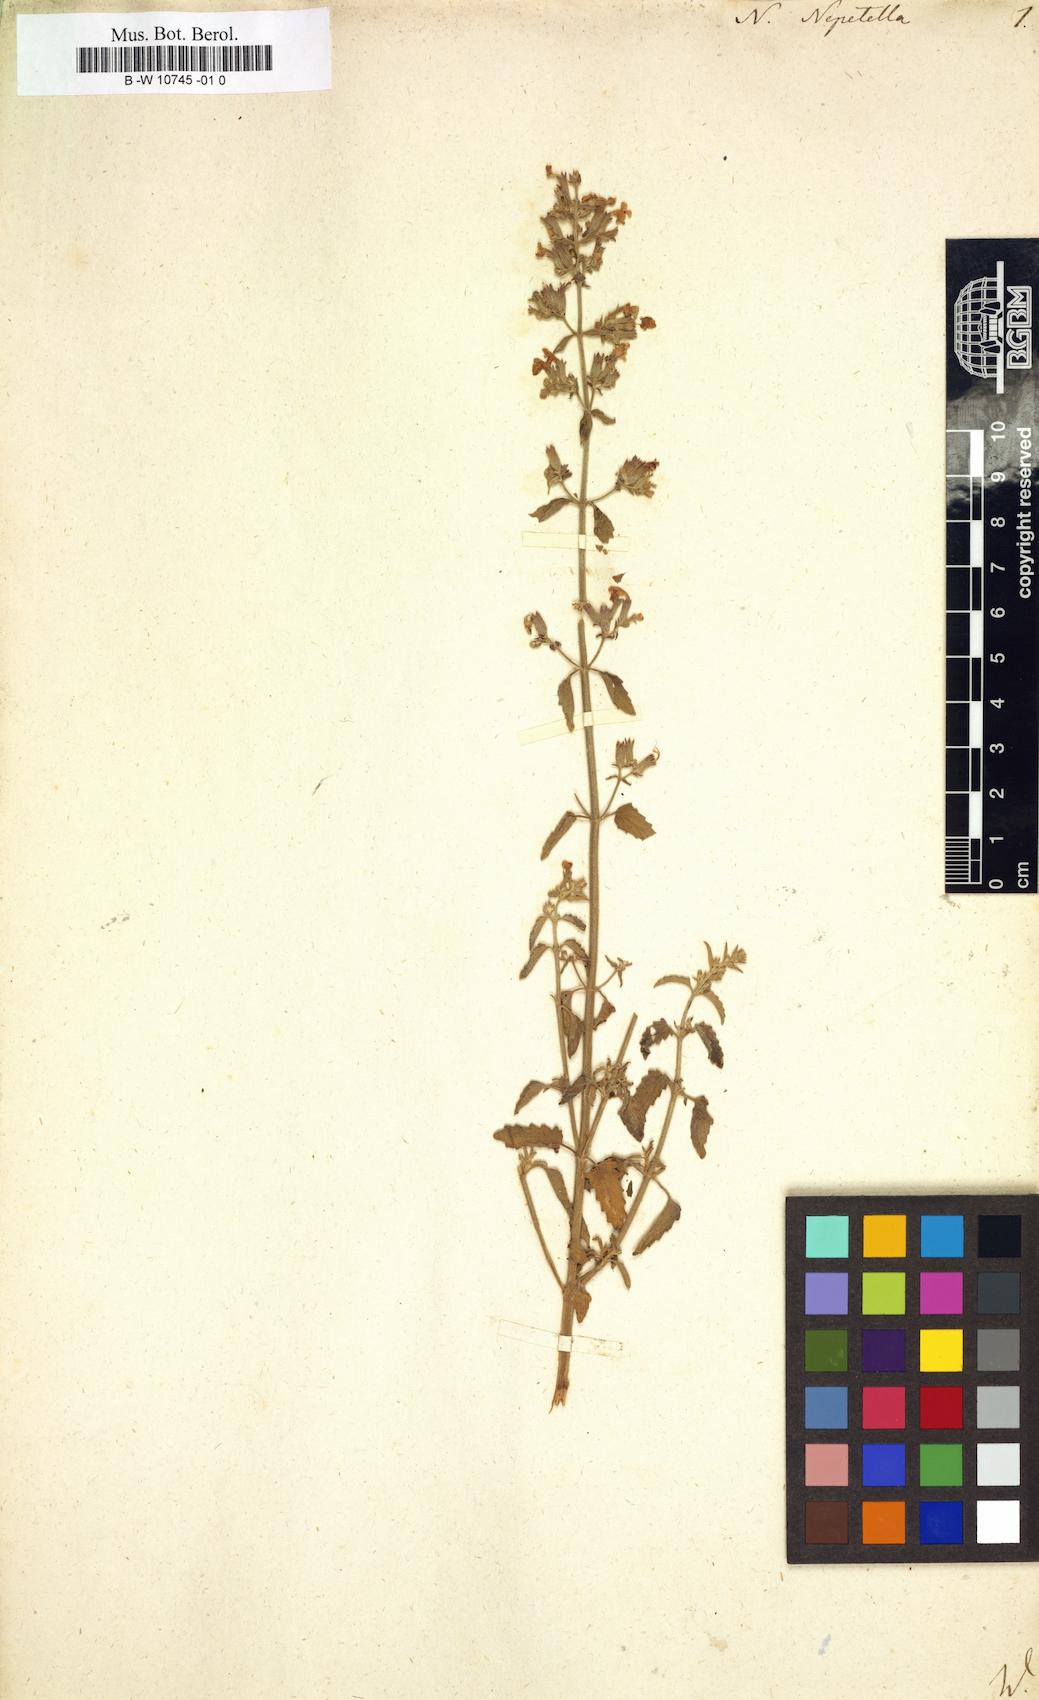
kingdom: Plantae
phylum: Tracheophyta
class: Magnoliopsida
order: Lamiales
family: Lamiaceae
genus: Nepeta
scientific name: Nepeta nepetella
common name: Lesser catmint
